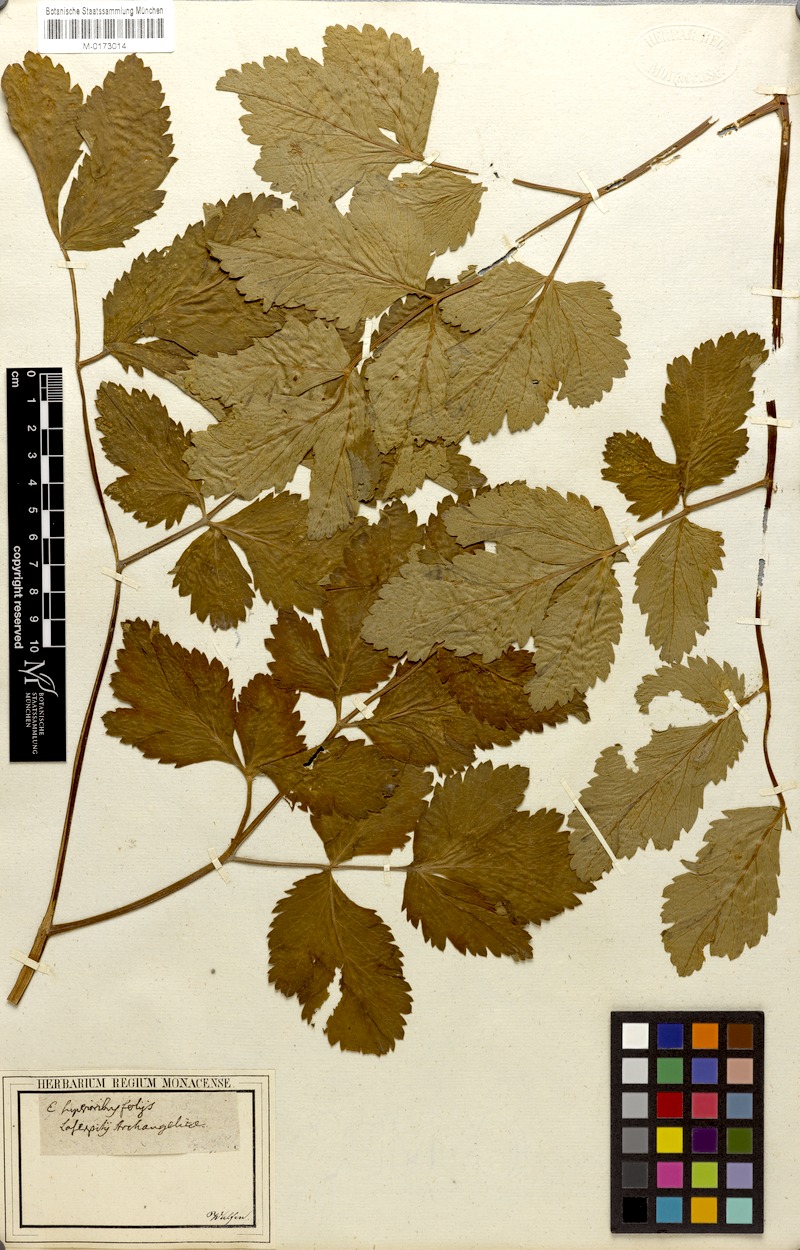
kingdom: Plantae
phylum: Tracheophyta
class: Magnoliopsida
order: Apiales
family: Apiaceae
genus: Laser
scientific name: Laser archangelica
